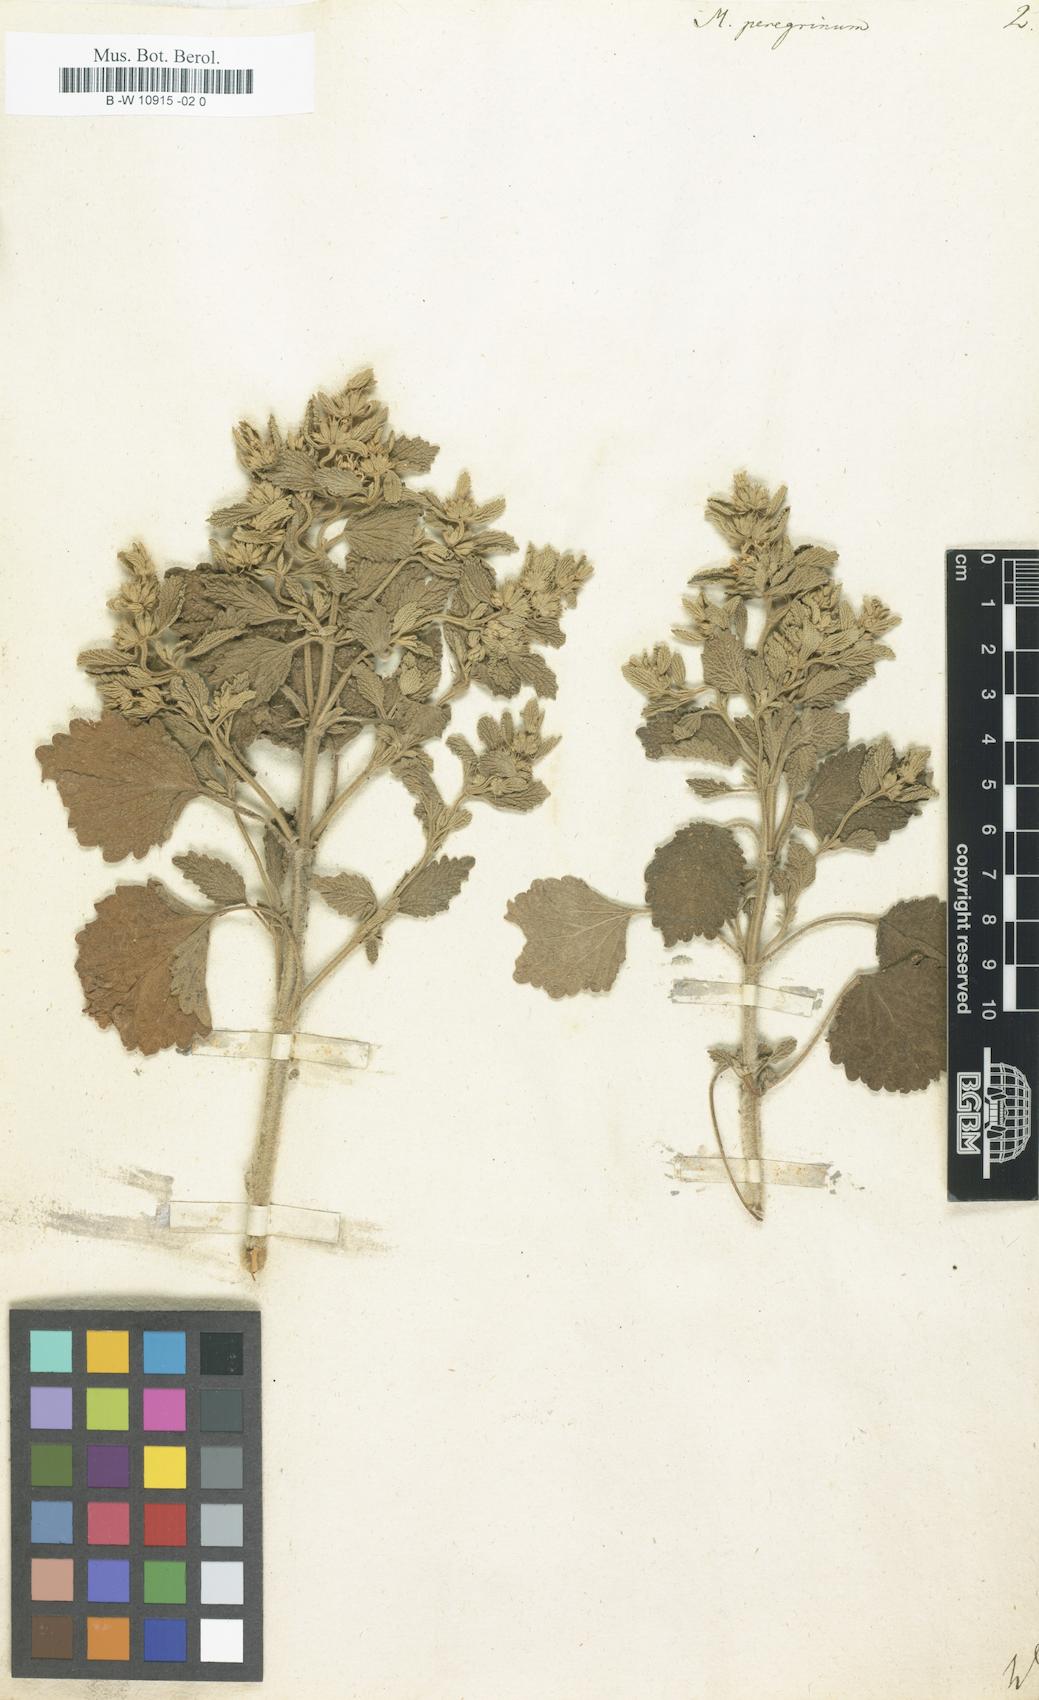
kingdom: Plantae
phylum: Tracheophyta
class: Magnoliopsida
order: Lamiales
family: Lamiaceae
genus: Marrubium
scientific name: Marrubium peregrinum
